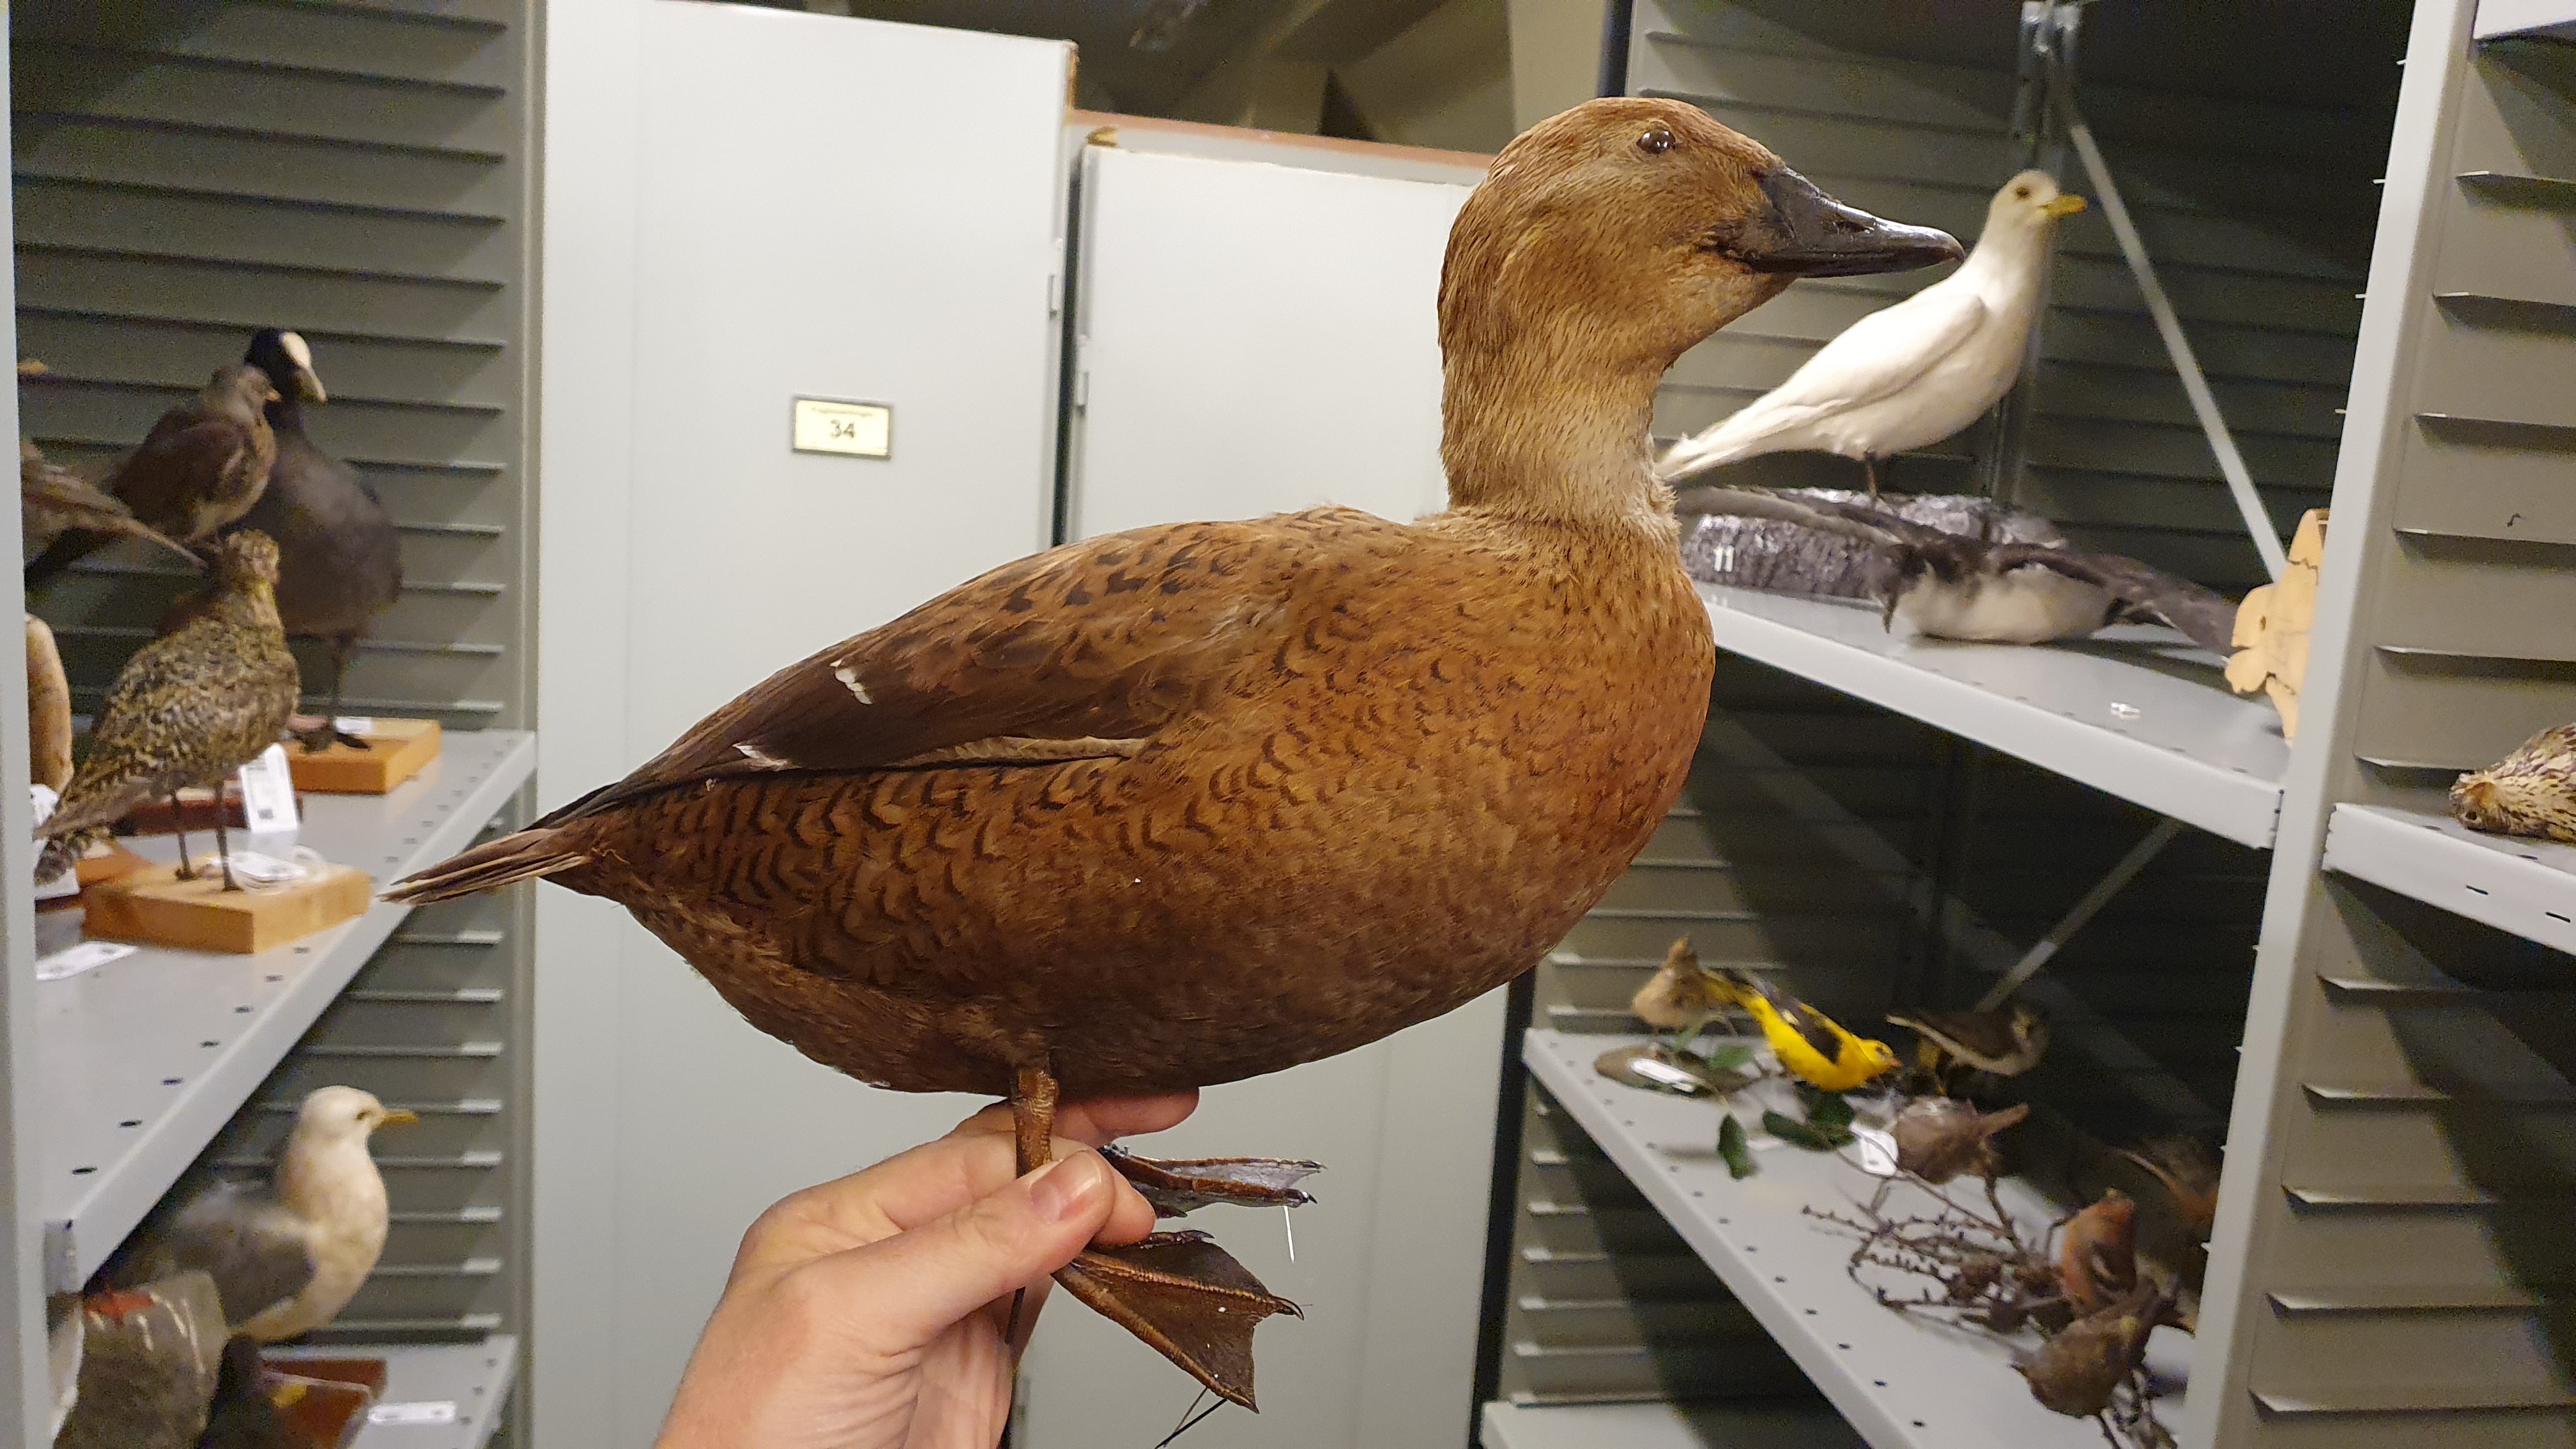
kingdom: Animalia
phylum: Chordata
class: Aves
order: Anseriformes
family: Anatidae
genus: Somateria
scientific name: Somateria spectabilis
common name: King eider
